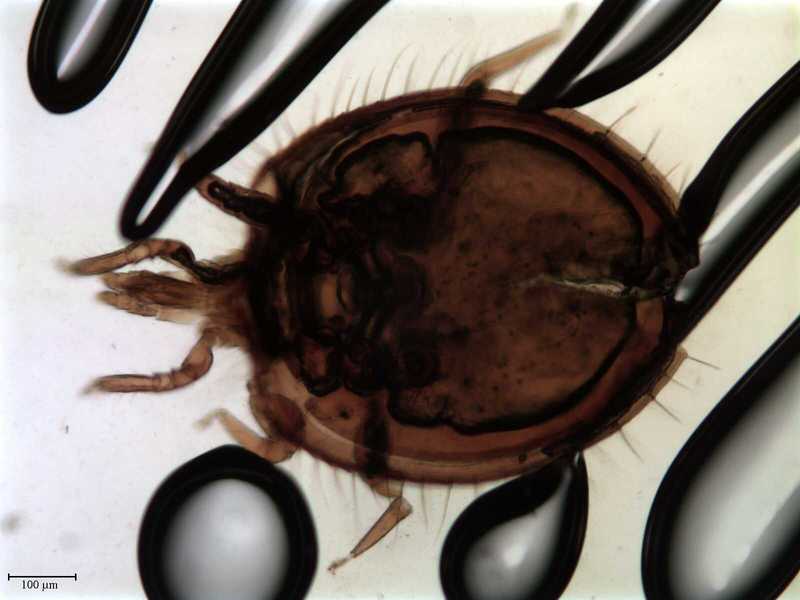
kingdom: Animalia
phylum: Arthropoda
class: Arachnida
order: Mesostigmata
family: Uropodidae
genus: Uropoda
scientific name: Uropoda
